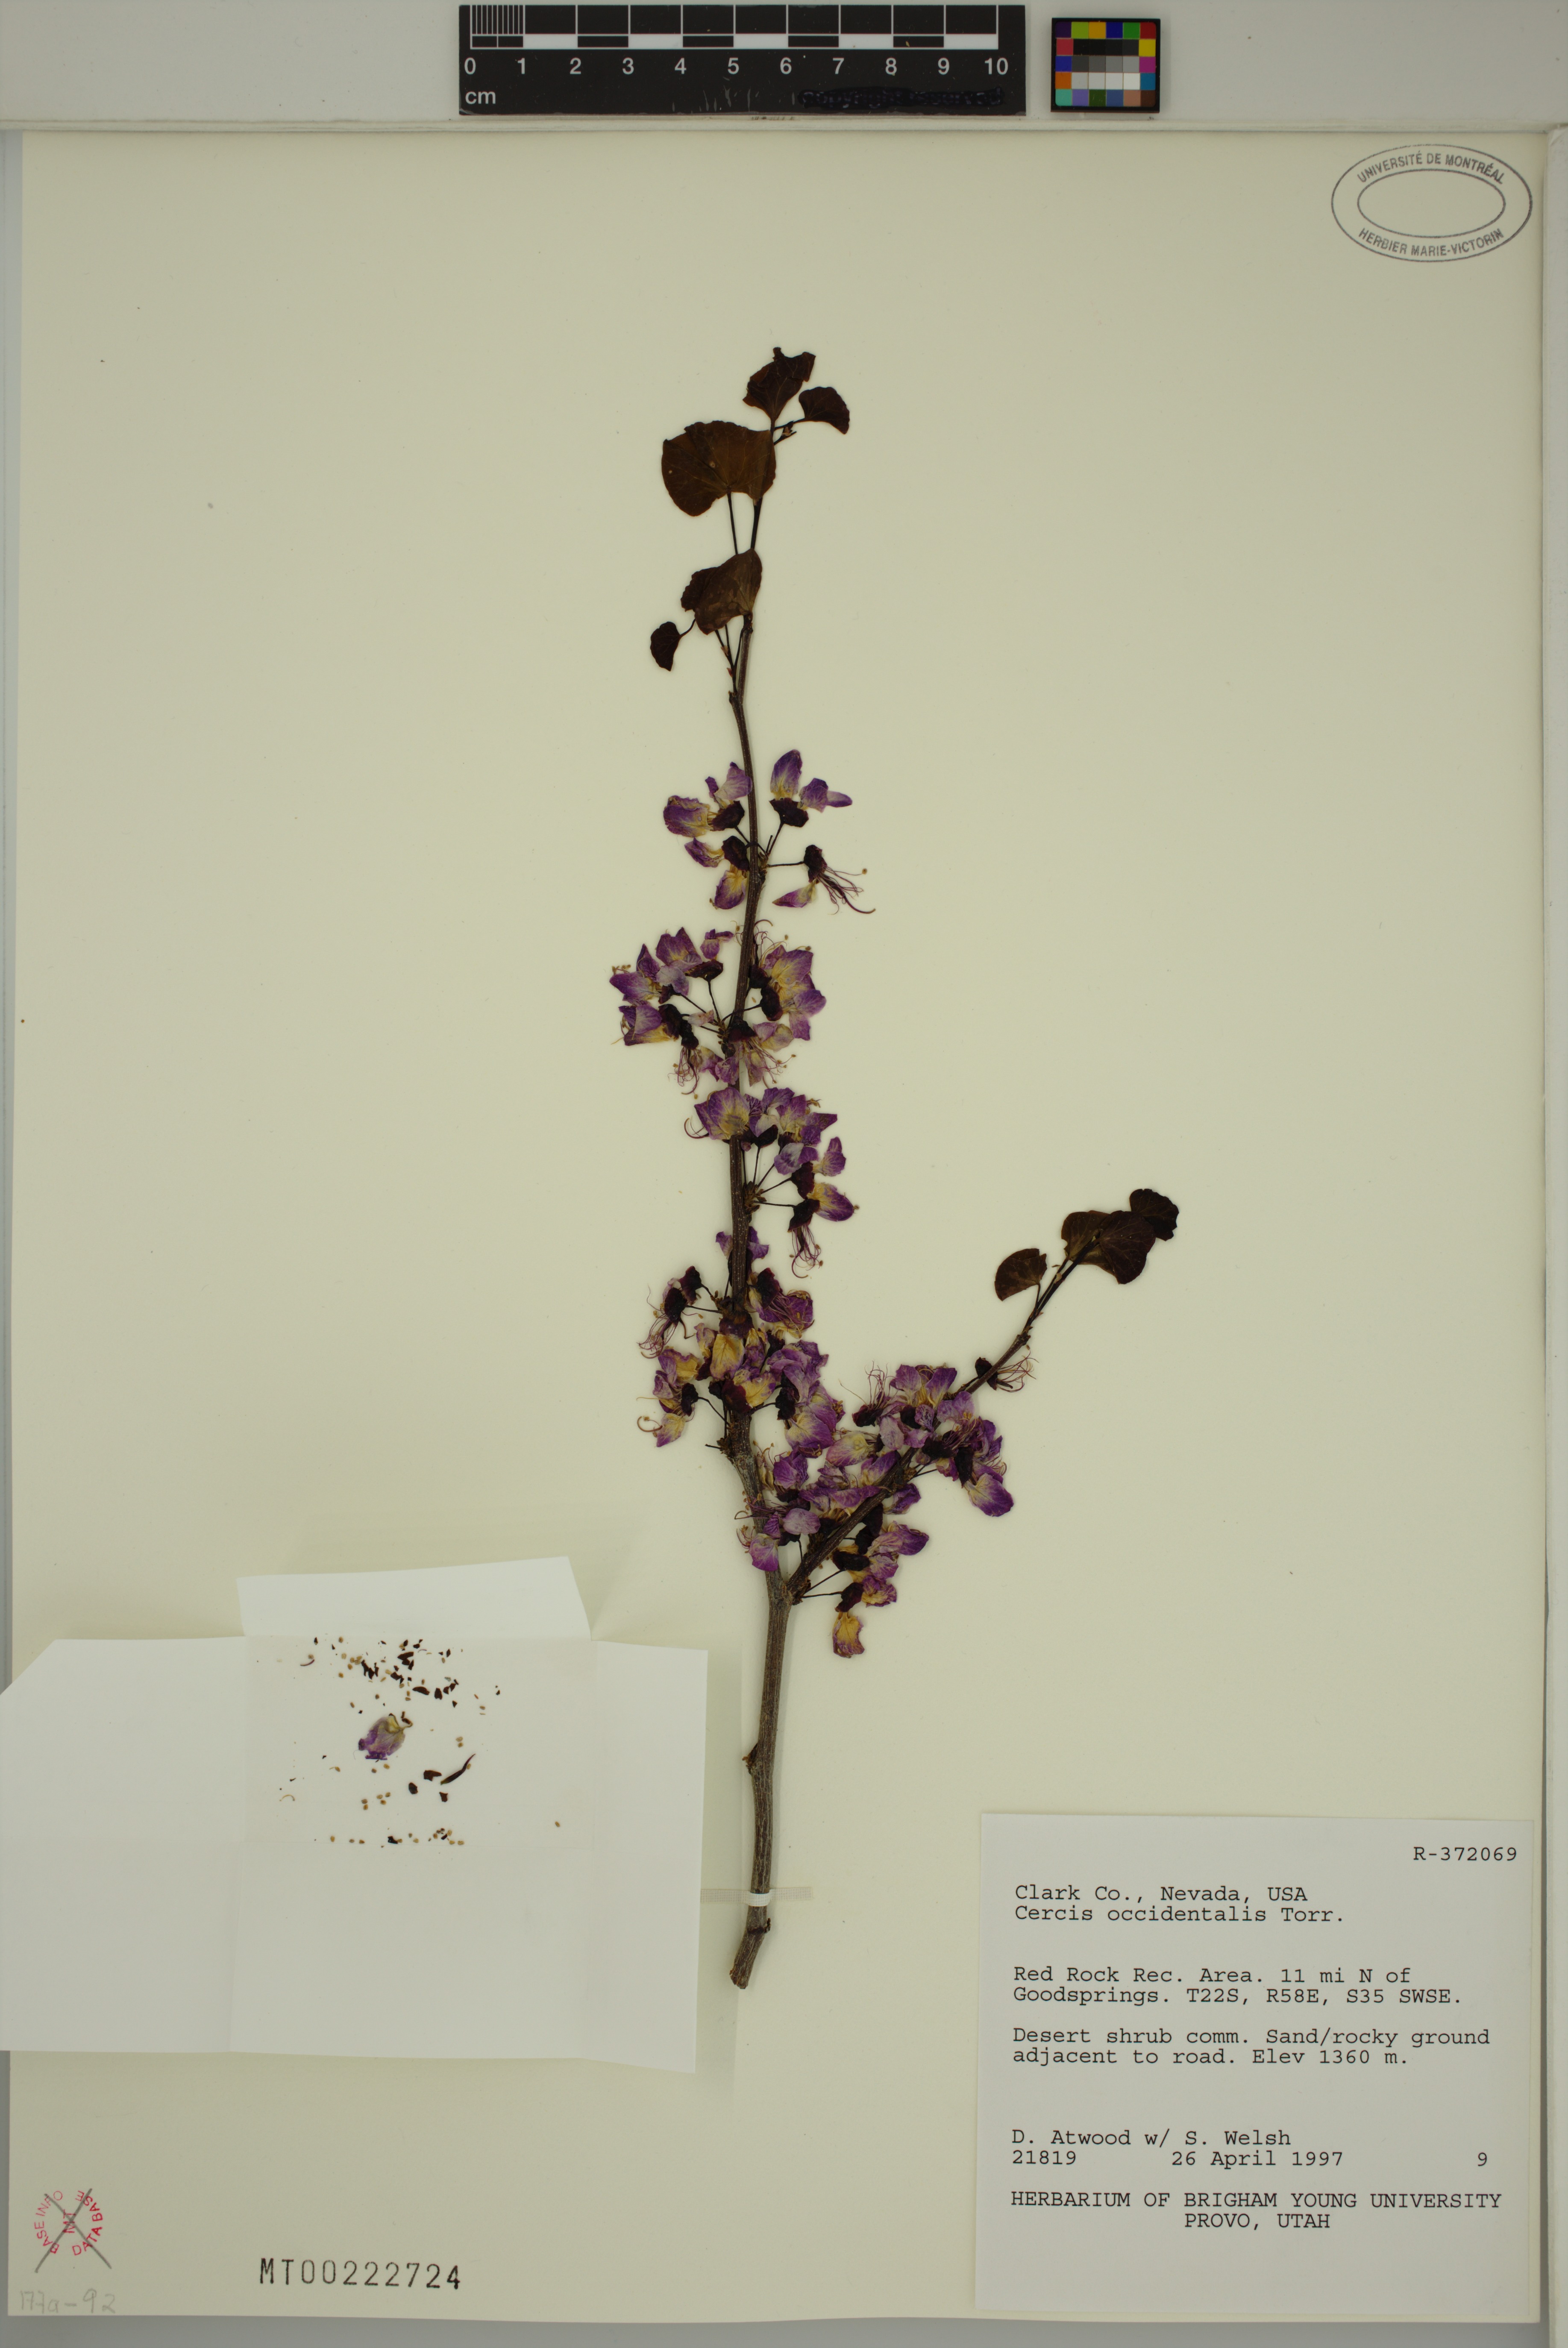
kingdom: Plantae
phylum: Tracheophyta
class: Magnoliopsida
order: Fabales
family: Fabaceae
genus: Cercis
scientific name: Cercis occidentalis
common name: California redbud
